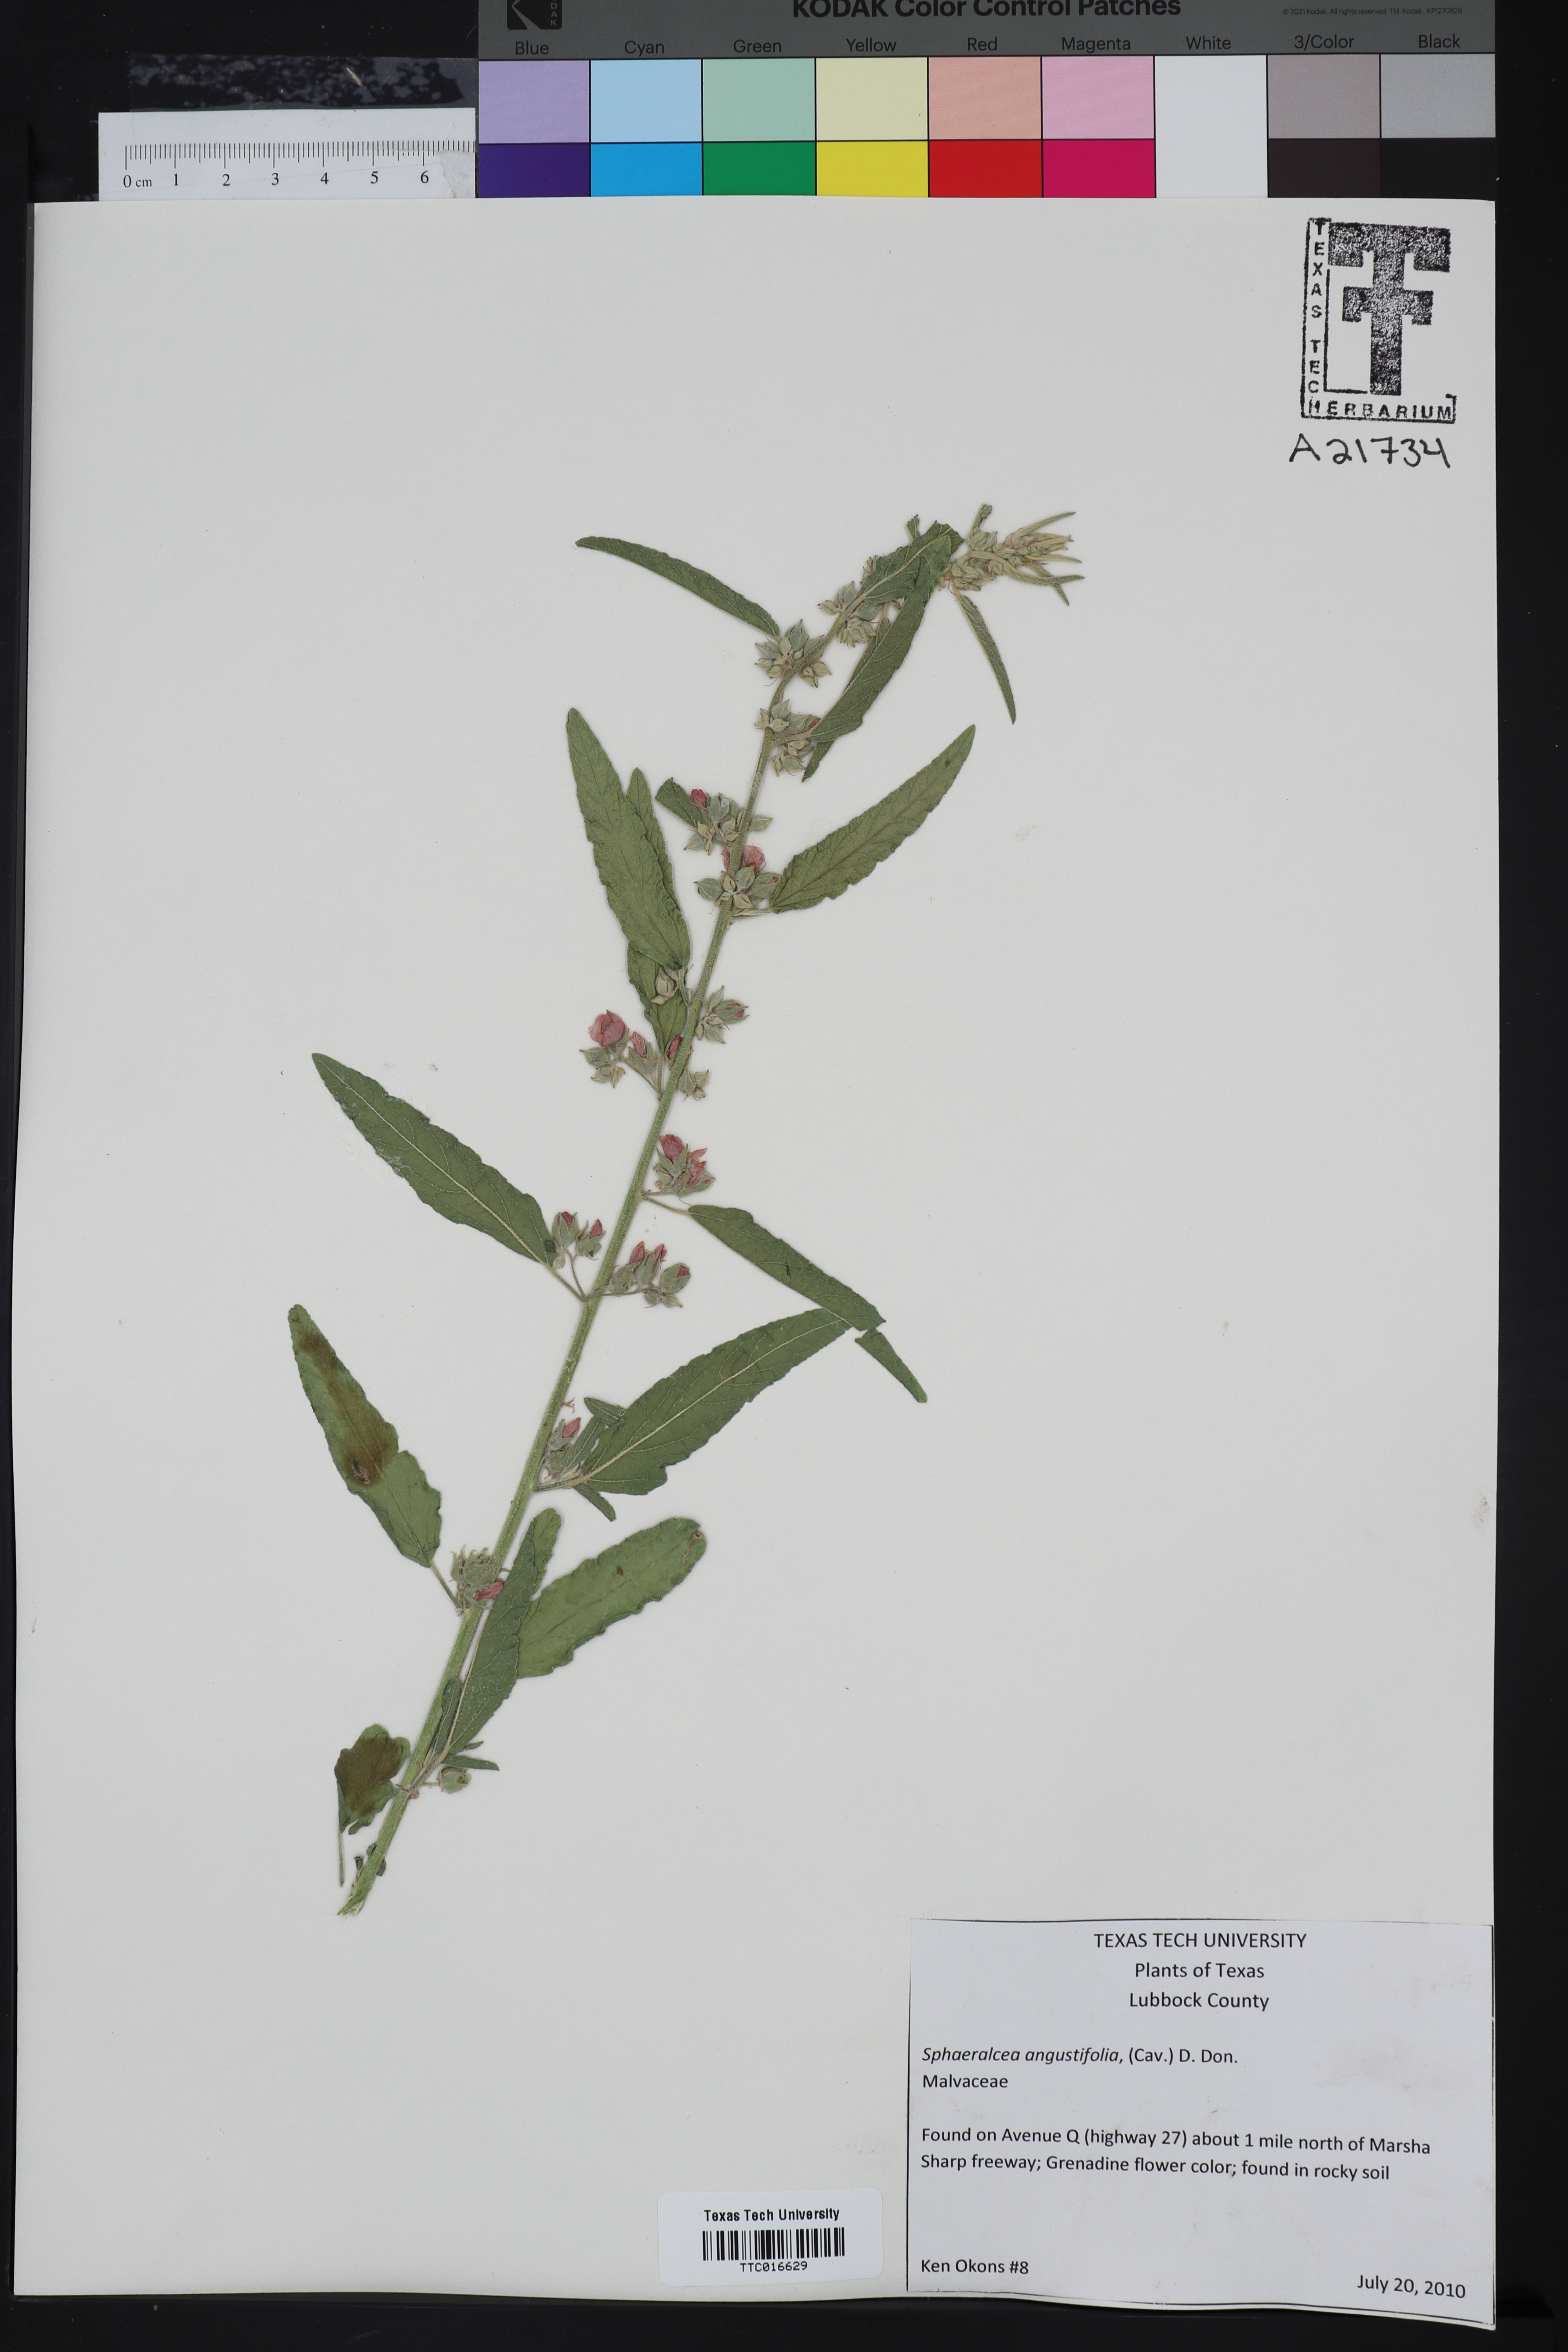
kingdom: Plantae
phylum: Tracheophyta
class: Magnoliopsida
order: Malvales
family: Malvaceae
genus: Sphaeralcea
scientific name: Sphaeralcea angustifolia
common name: Copper globe-mallow
